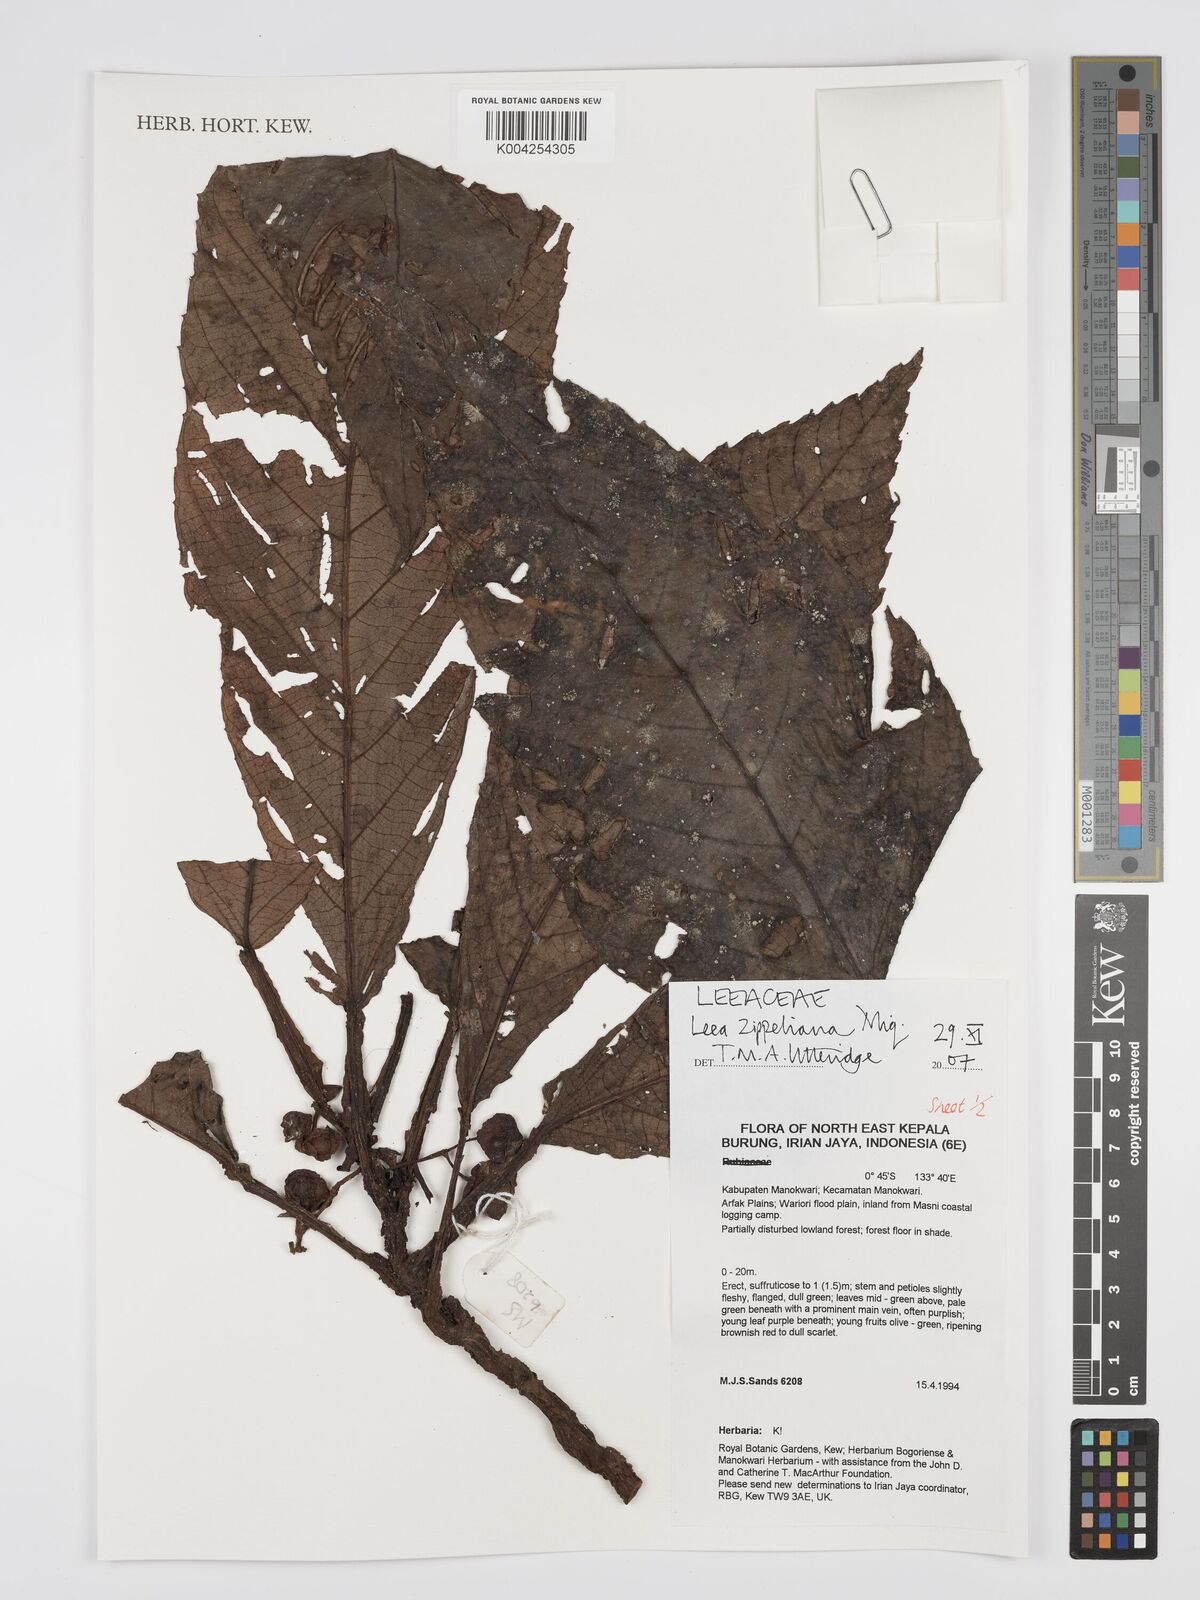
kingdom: Plantae
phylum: Tracheophyta
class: Magnoliopsida
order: Vitales
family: Vitaceae
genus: Leea
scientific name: Leea zippeliana
